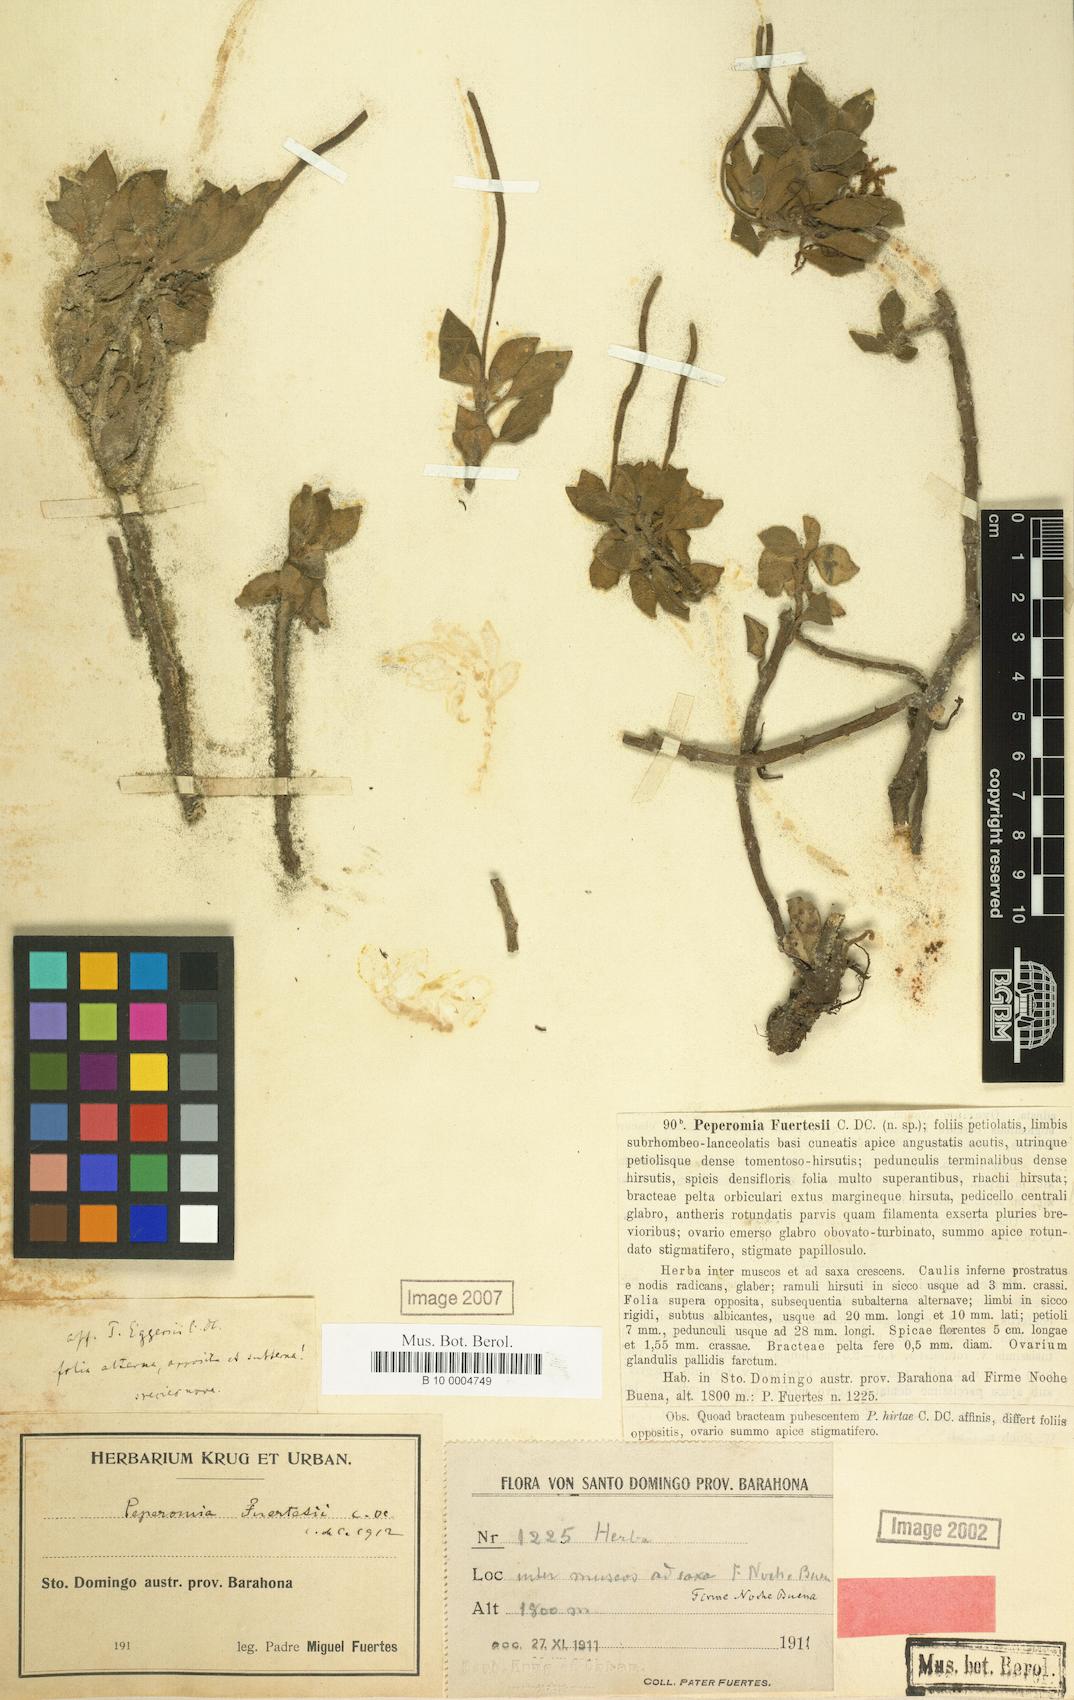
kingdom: Plantae
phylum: Tracheophyta
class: Magnoliopsida
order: Piperales
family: Piperaceae
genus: Peperomia
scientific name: Peperomia fuertesii
